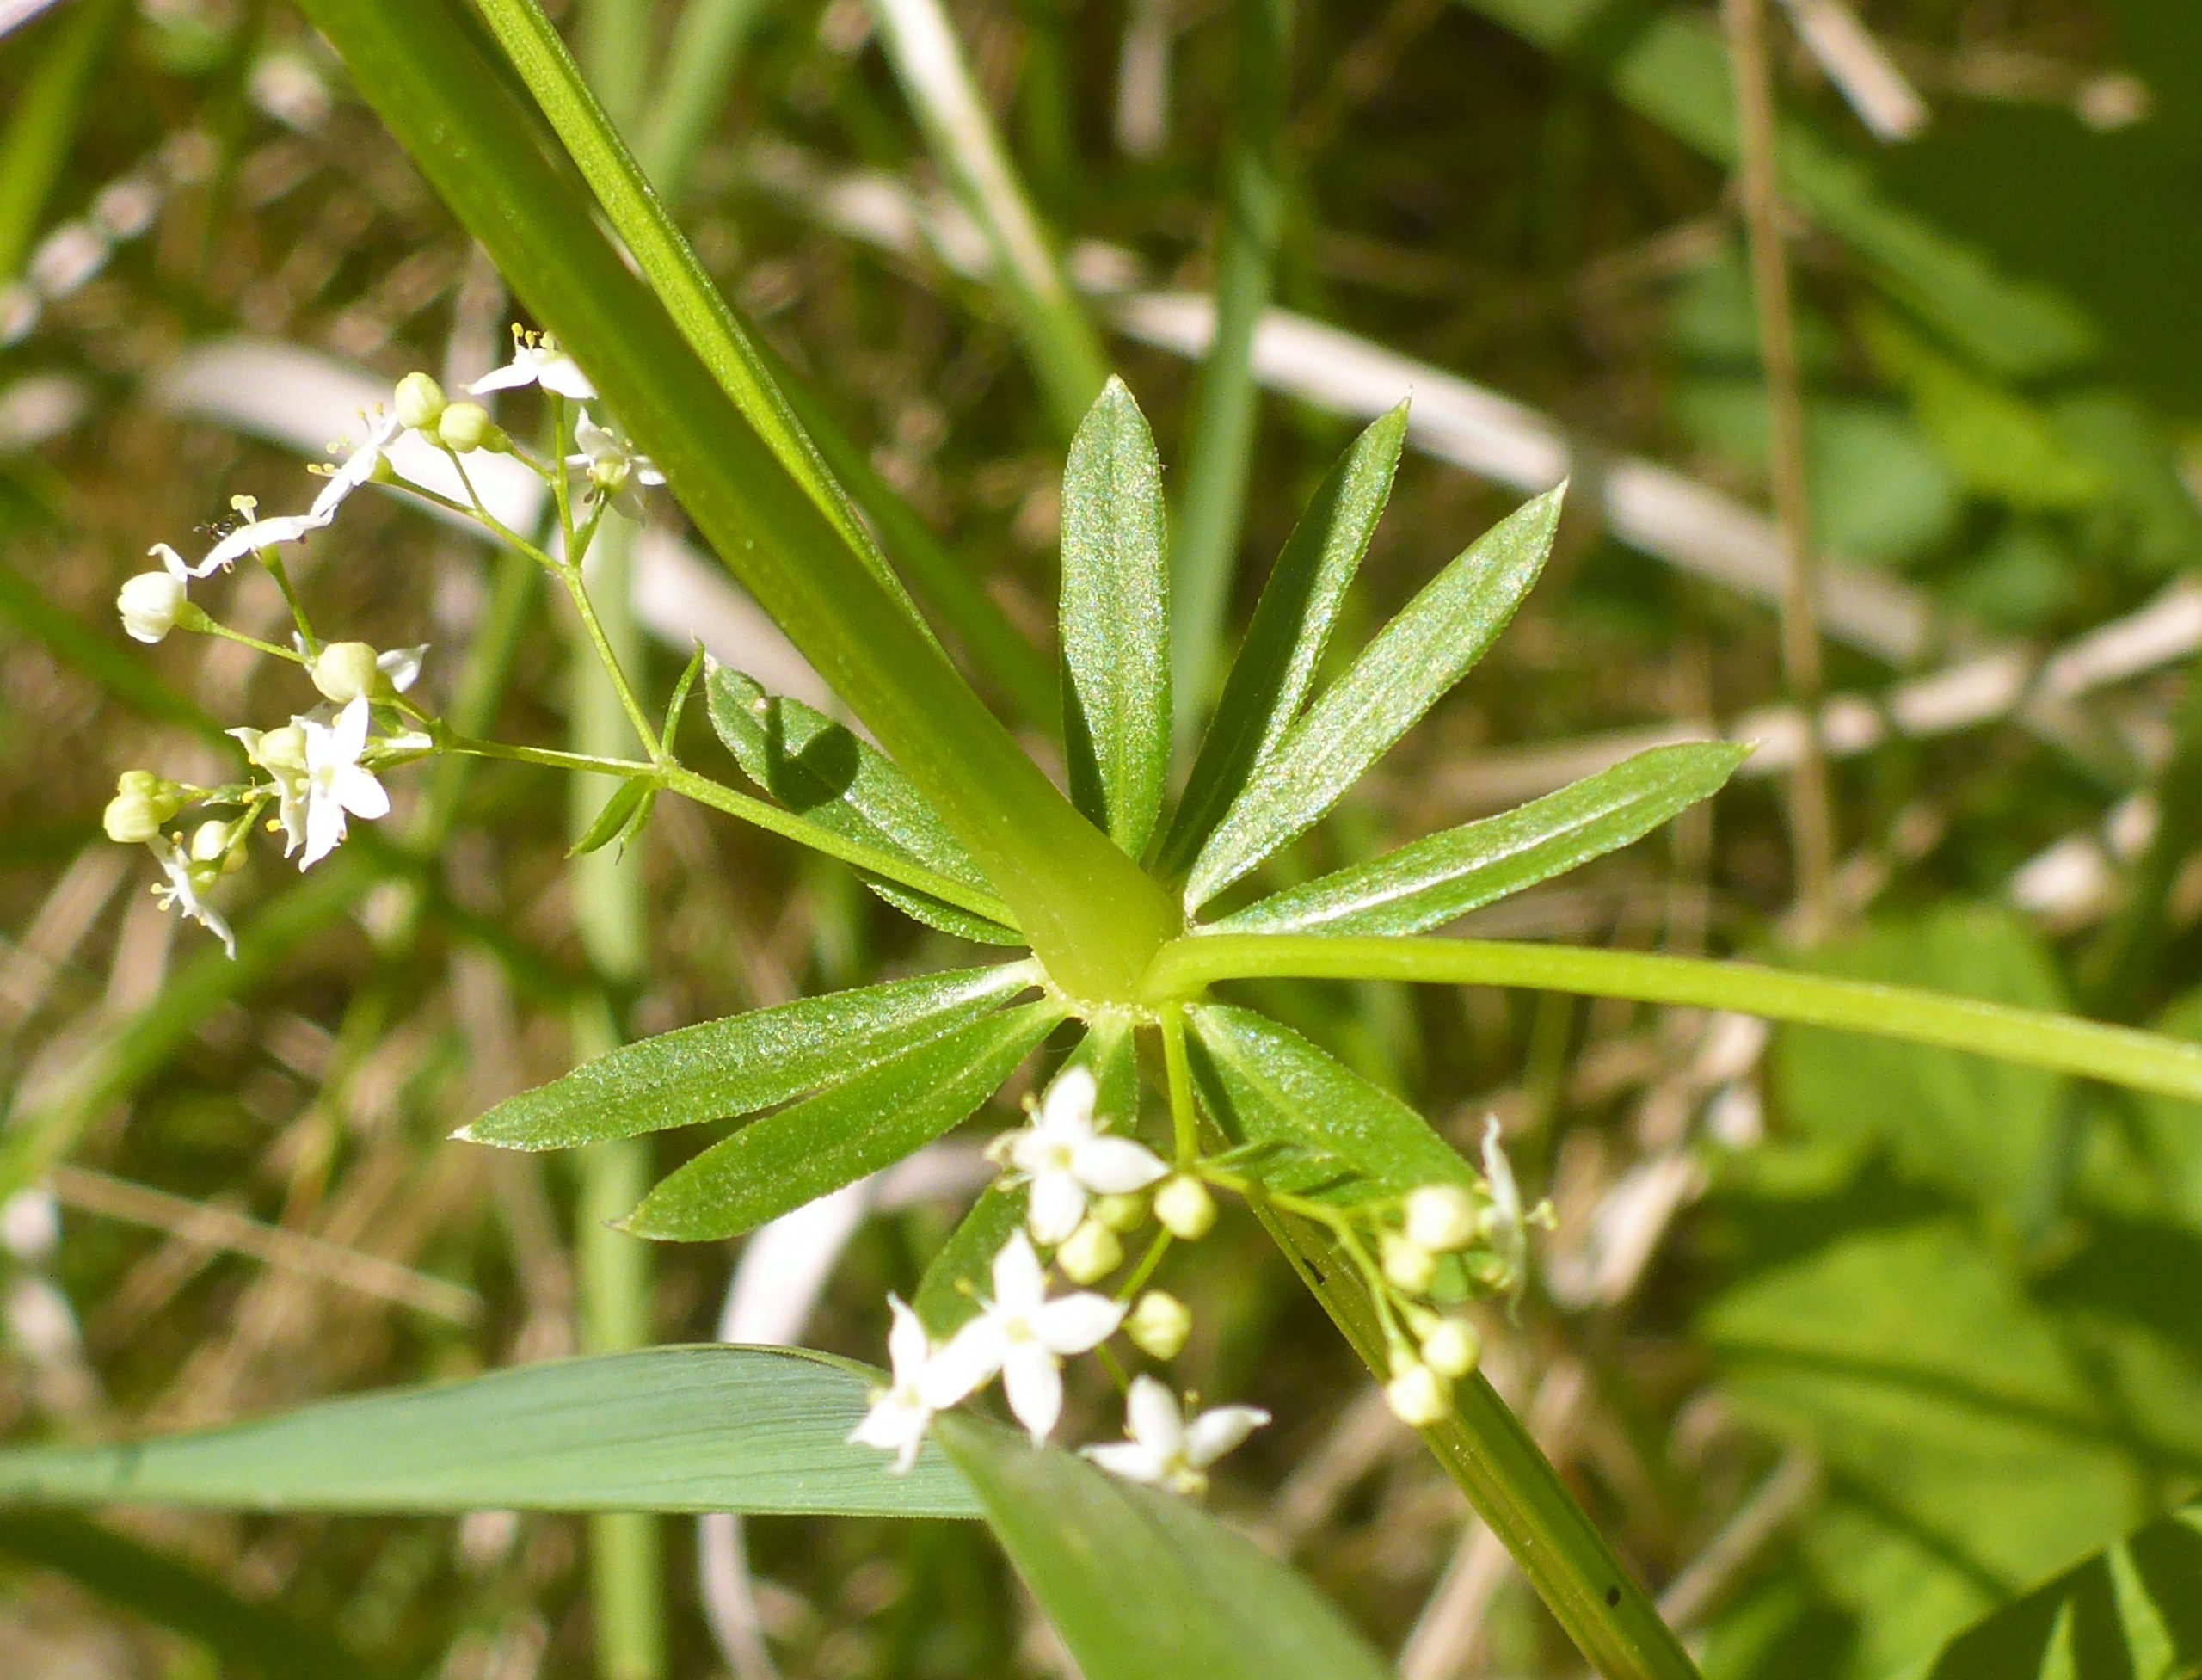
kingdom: Plantae
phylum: Tracheophyta
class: Magnoliopsida
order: Gentianales
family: Rubiaceae
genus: Galium
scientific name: Galium mollugo
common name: Hvid snerre
